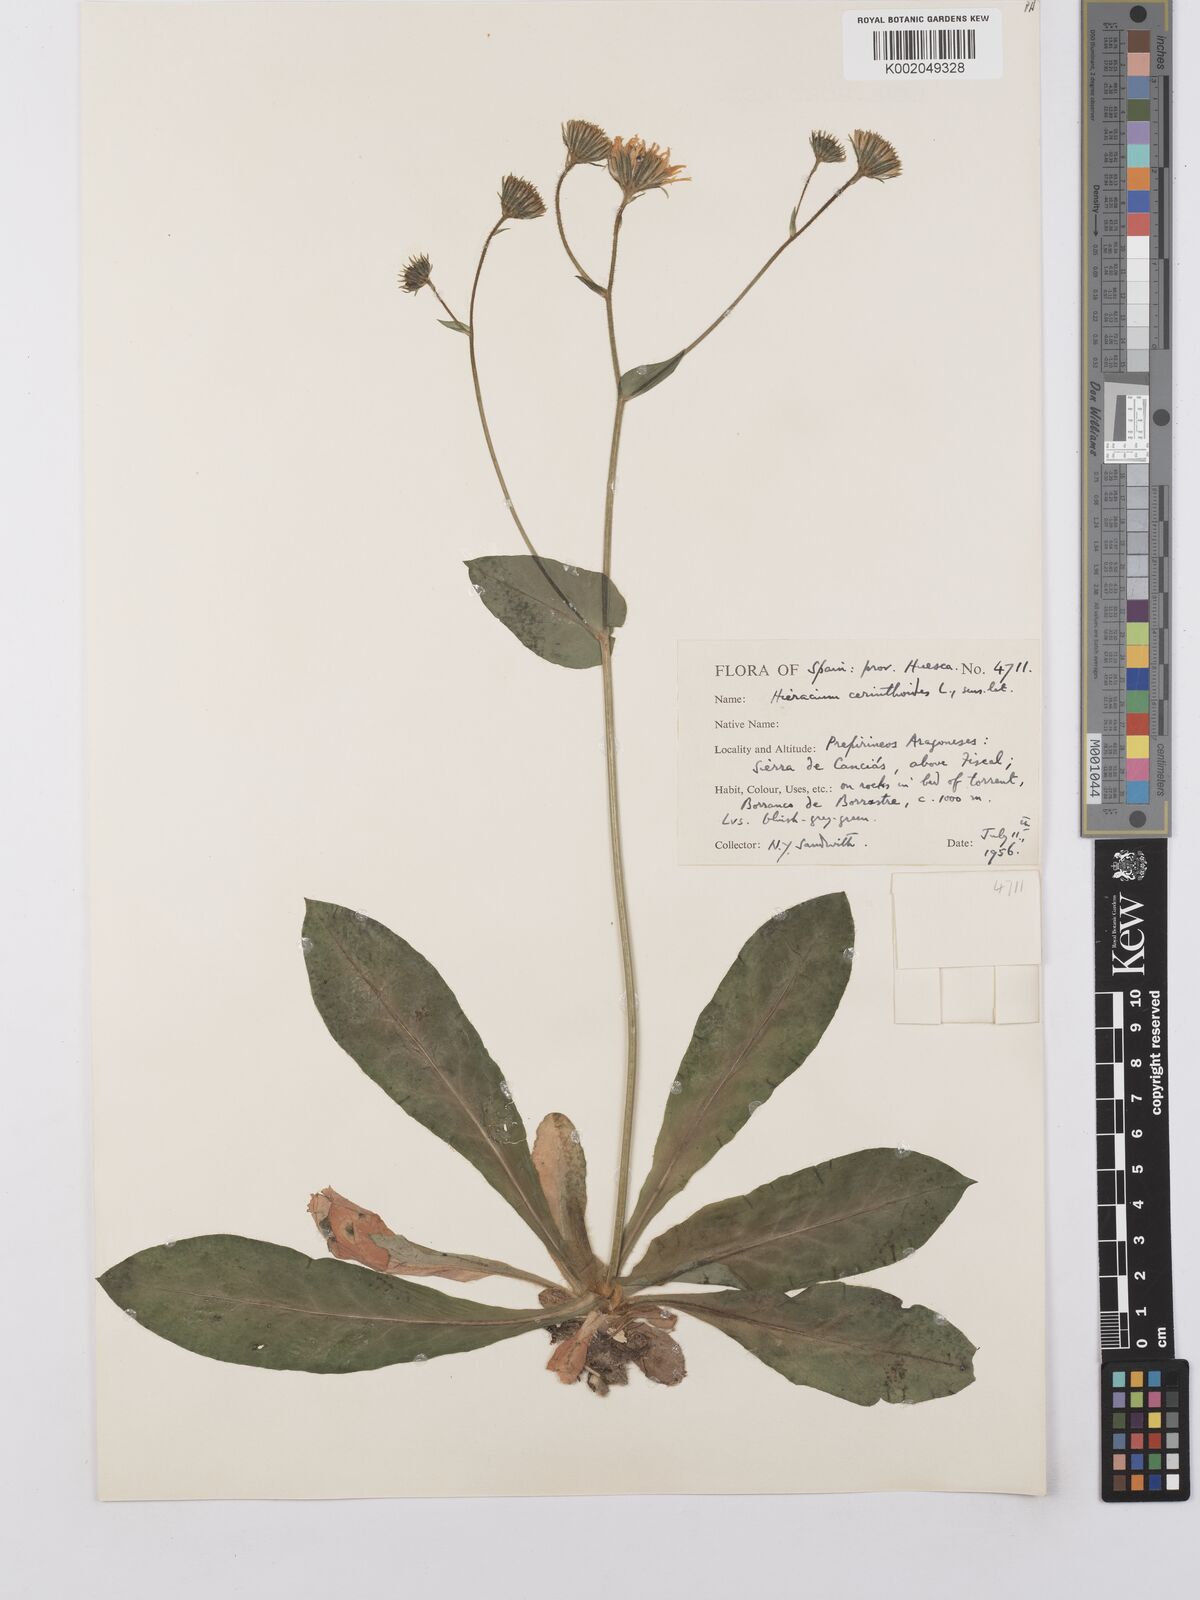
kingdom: Plantae
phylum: Tracheophyta
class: Magnoliopsida
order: Asterales
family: Asteraceae
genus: Hieracium
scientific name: Hieracium cerinthoides
